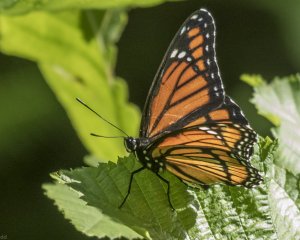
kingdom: Animalia
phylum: Arthropoda
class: Insecta
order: Lepidoptera
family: Nymphalidae
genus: Limenitis
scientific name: Limenitis archippus
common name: Viceroy
